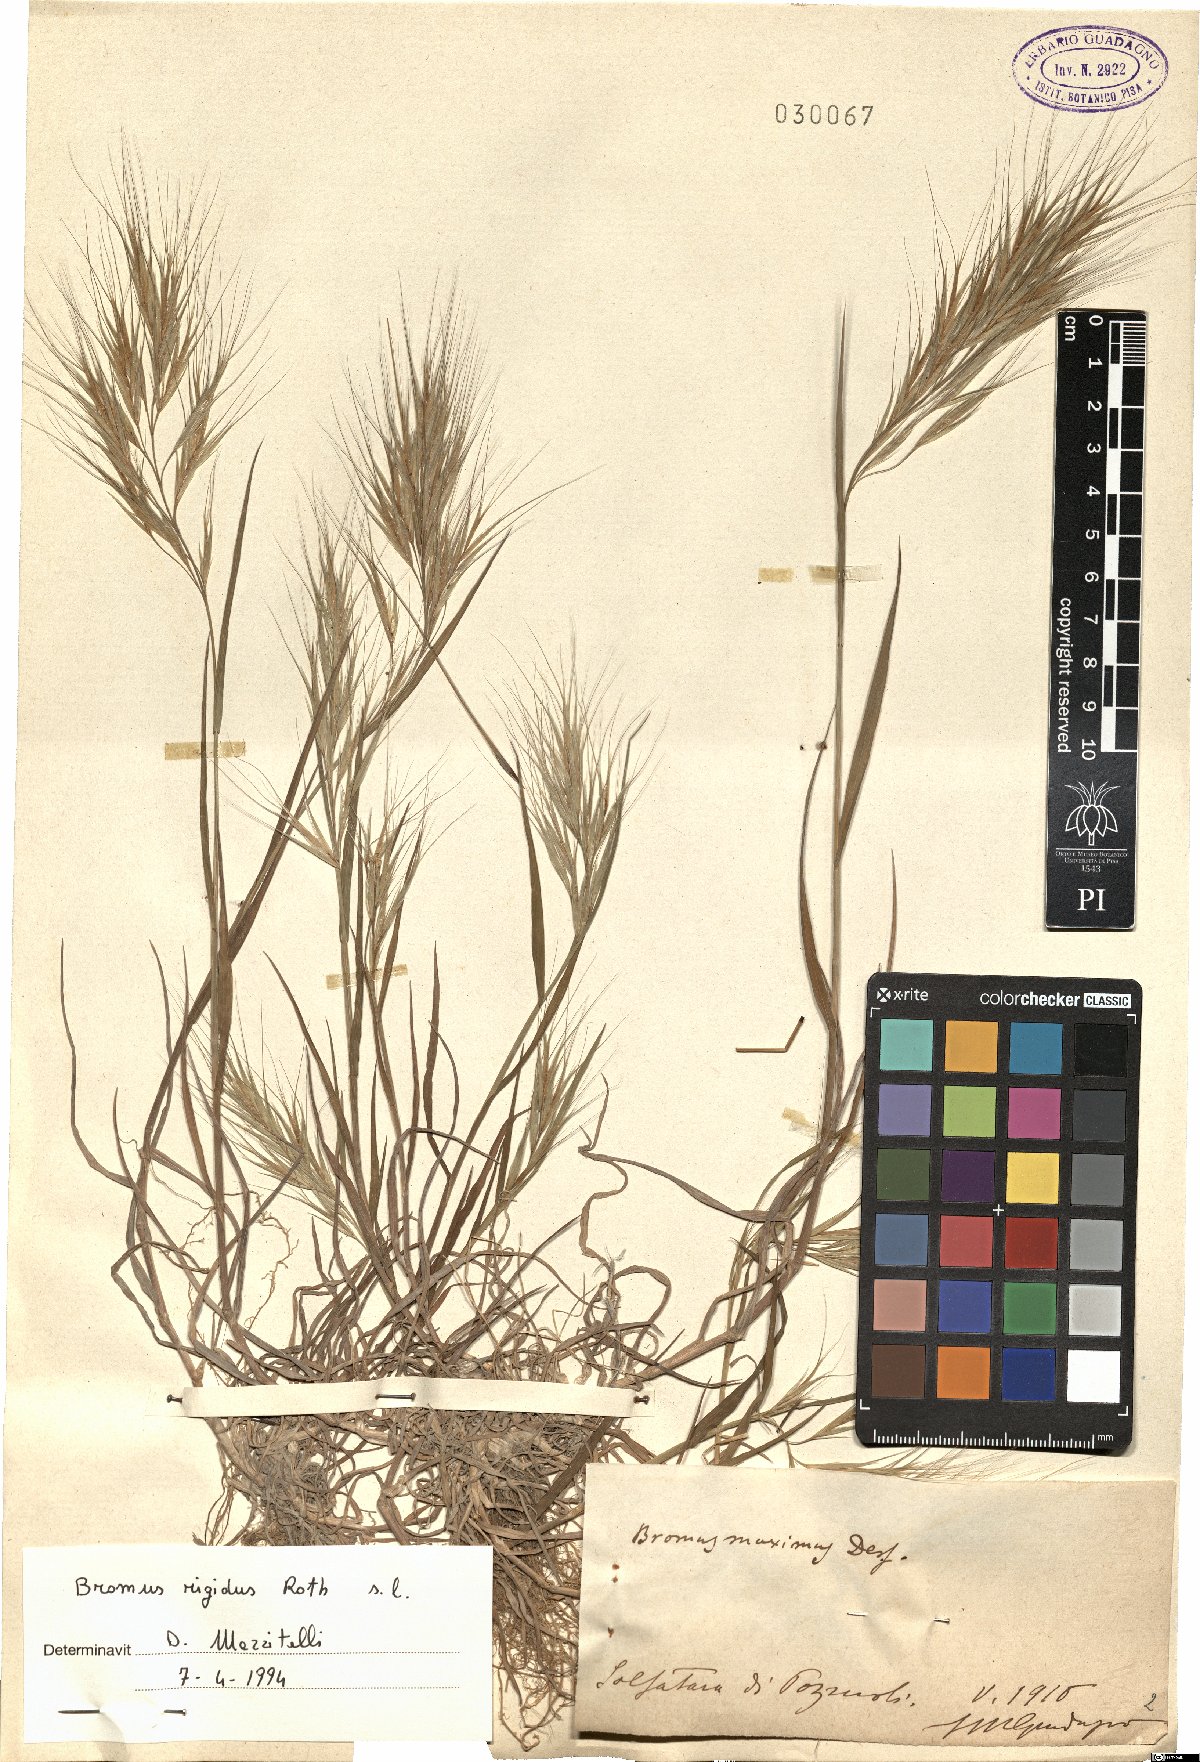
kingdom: Plantae
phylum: Tracheophyta
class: Liliopsida
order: Poales
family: Poaceae
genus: Bromus
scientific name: Bromus rigidus
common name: Ripgut brome
